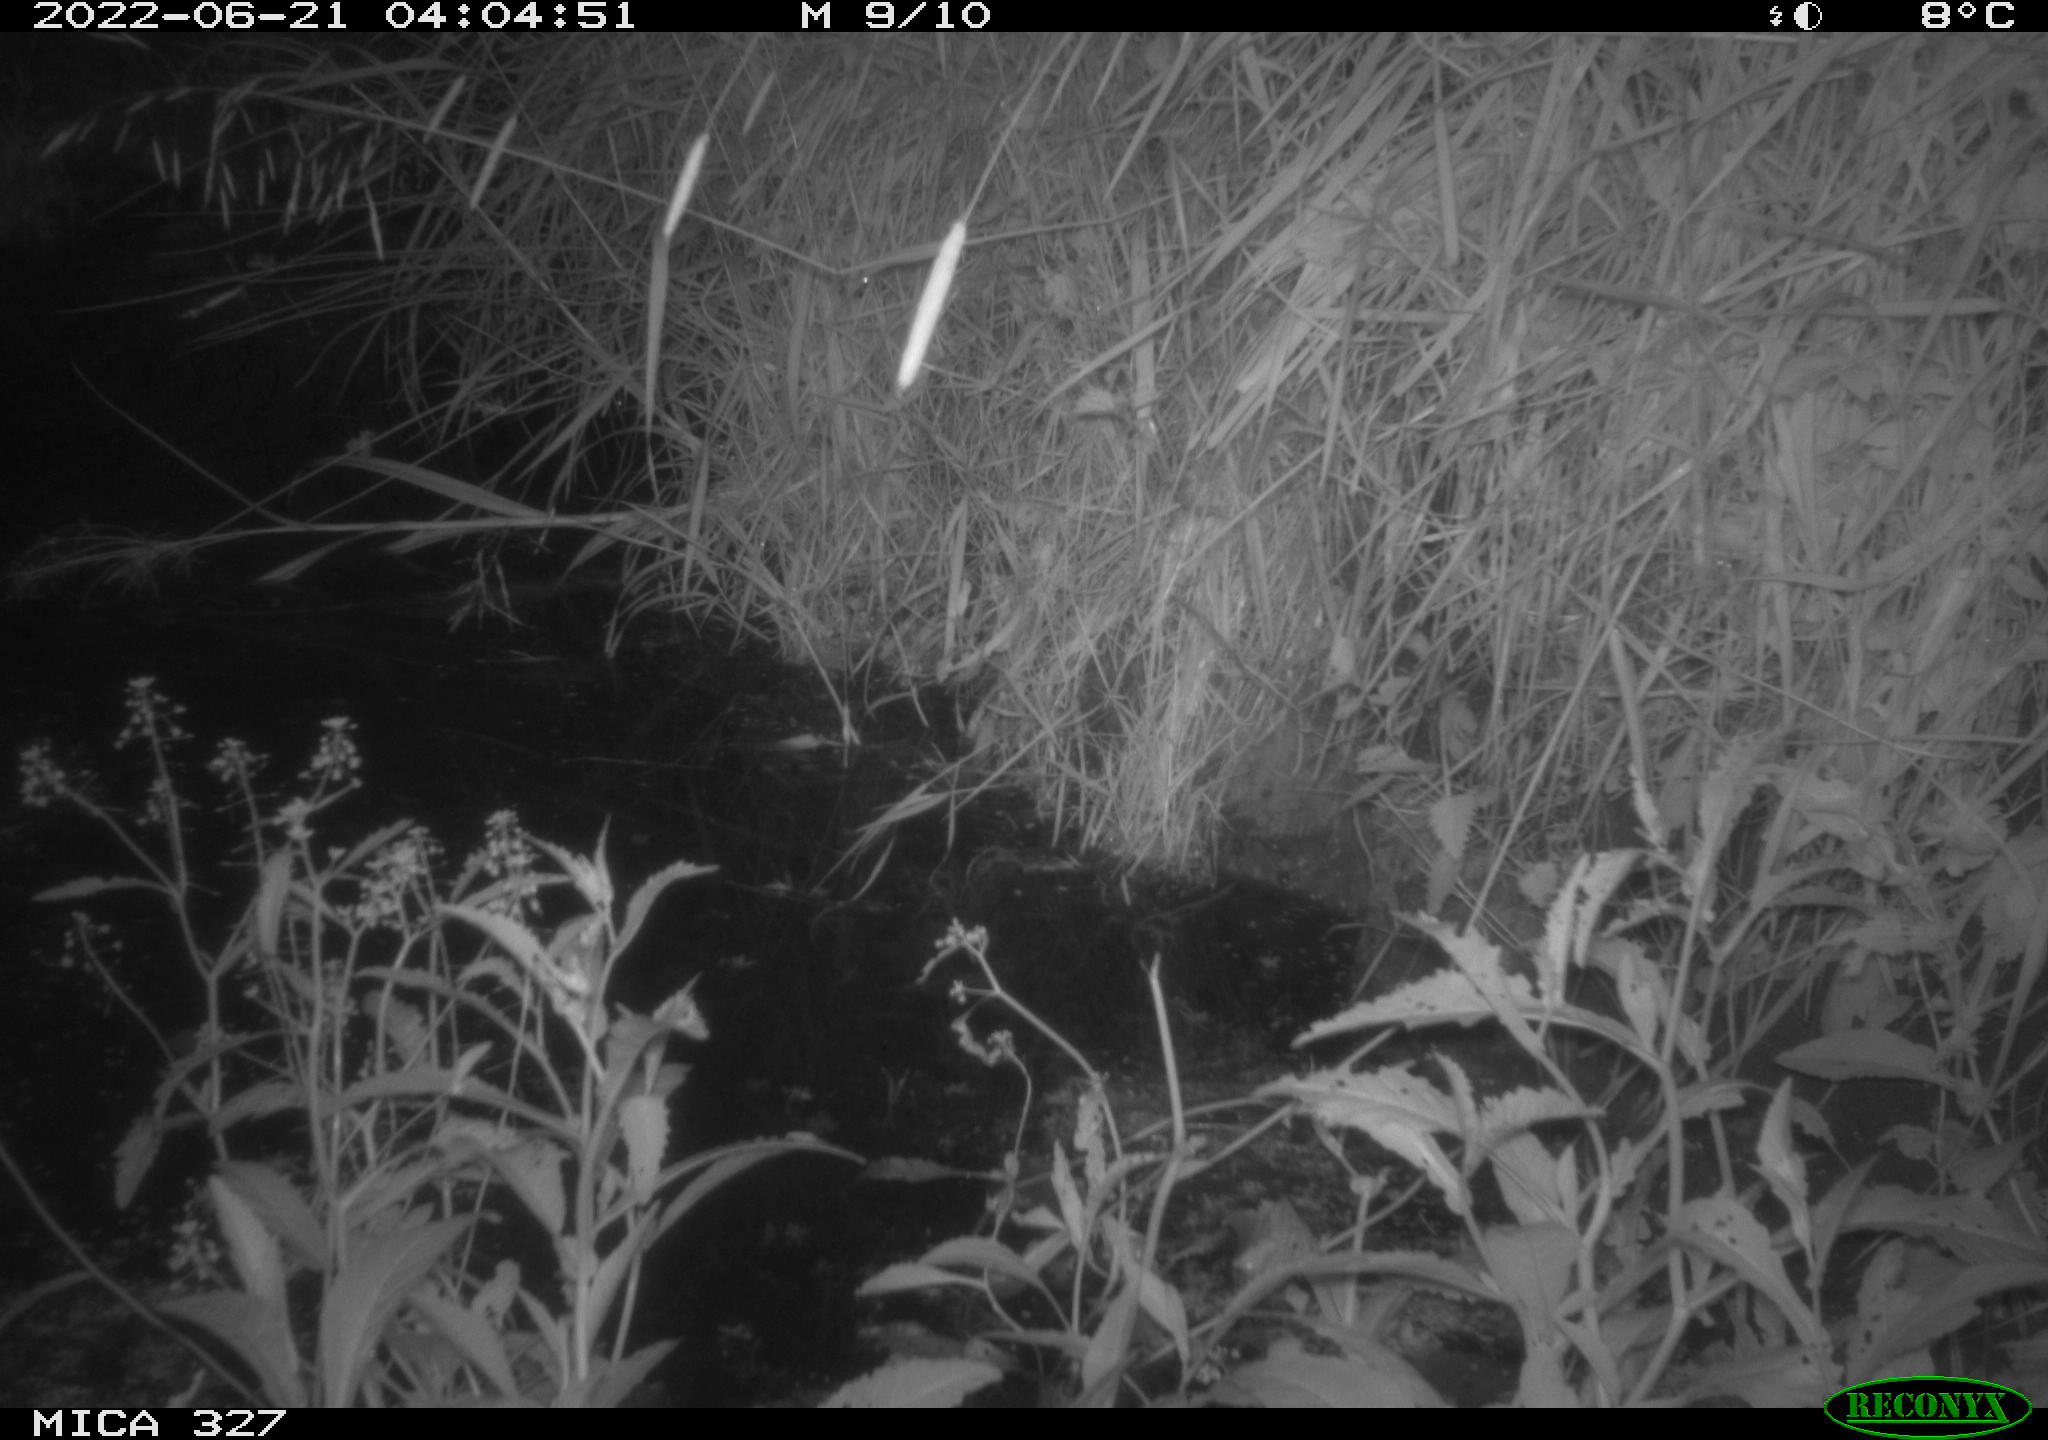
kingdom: Animalia
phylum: Chordata
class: Mammalia
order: Rodentia
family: Muridae
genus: Rattus
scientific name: Rattus norvegicus
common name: Brown rat
